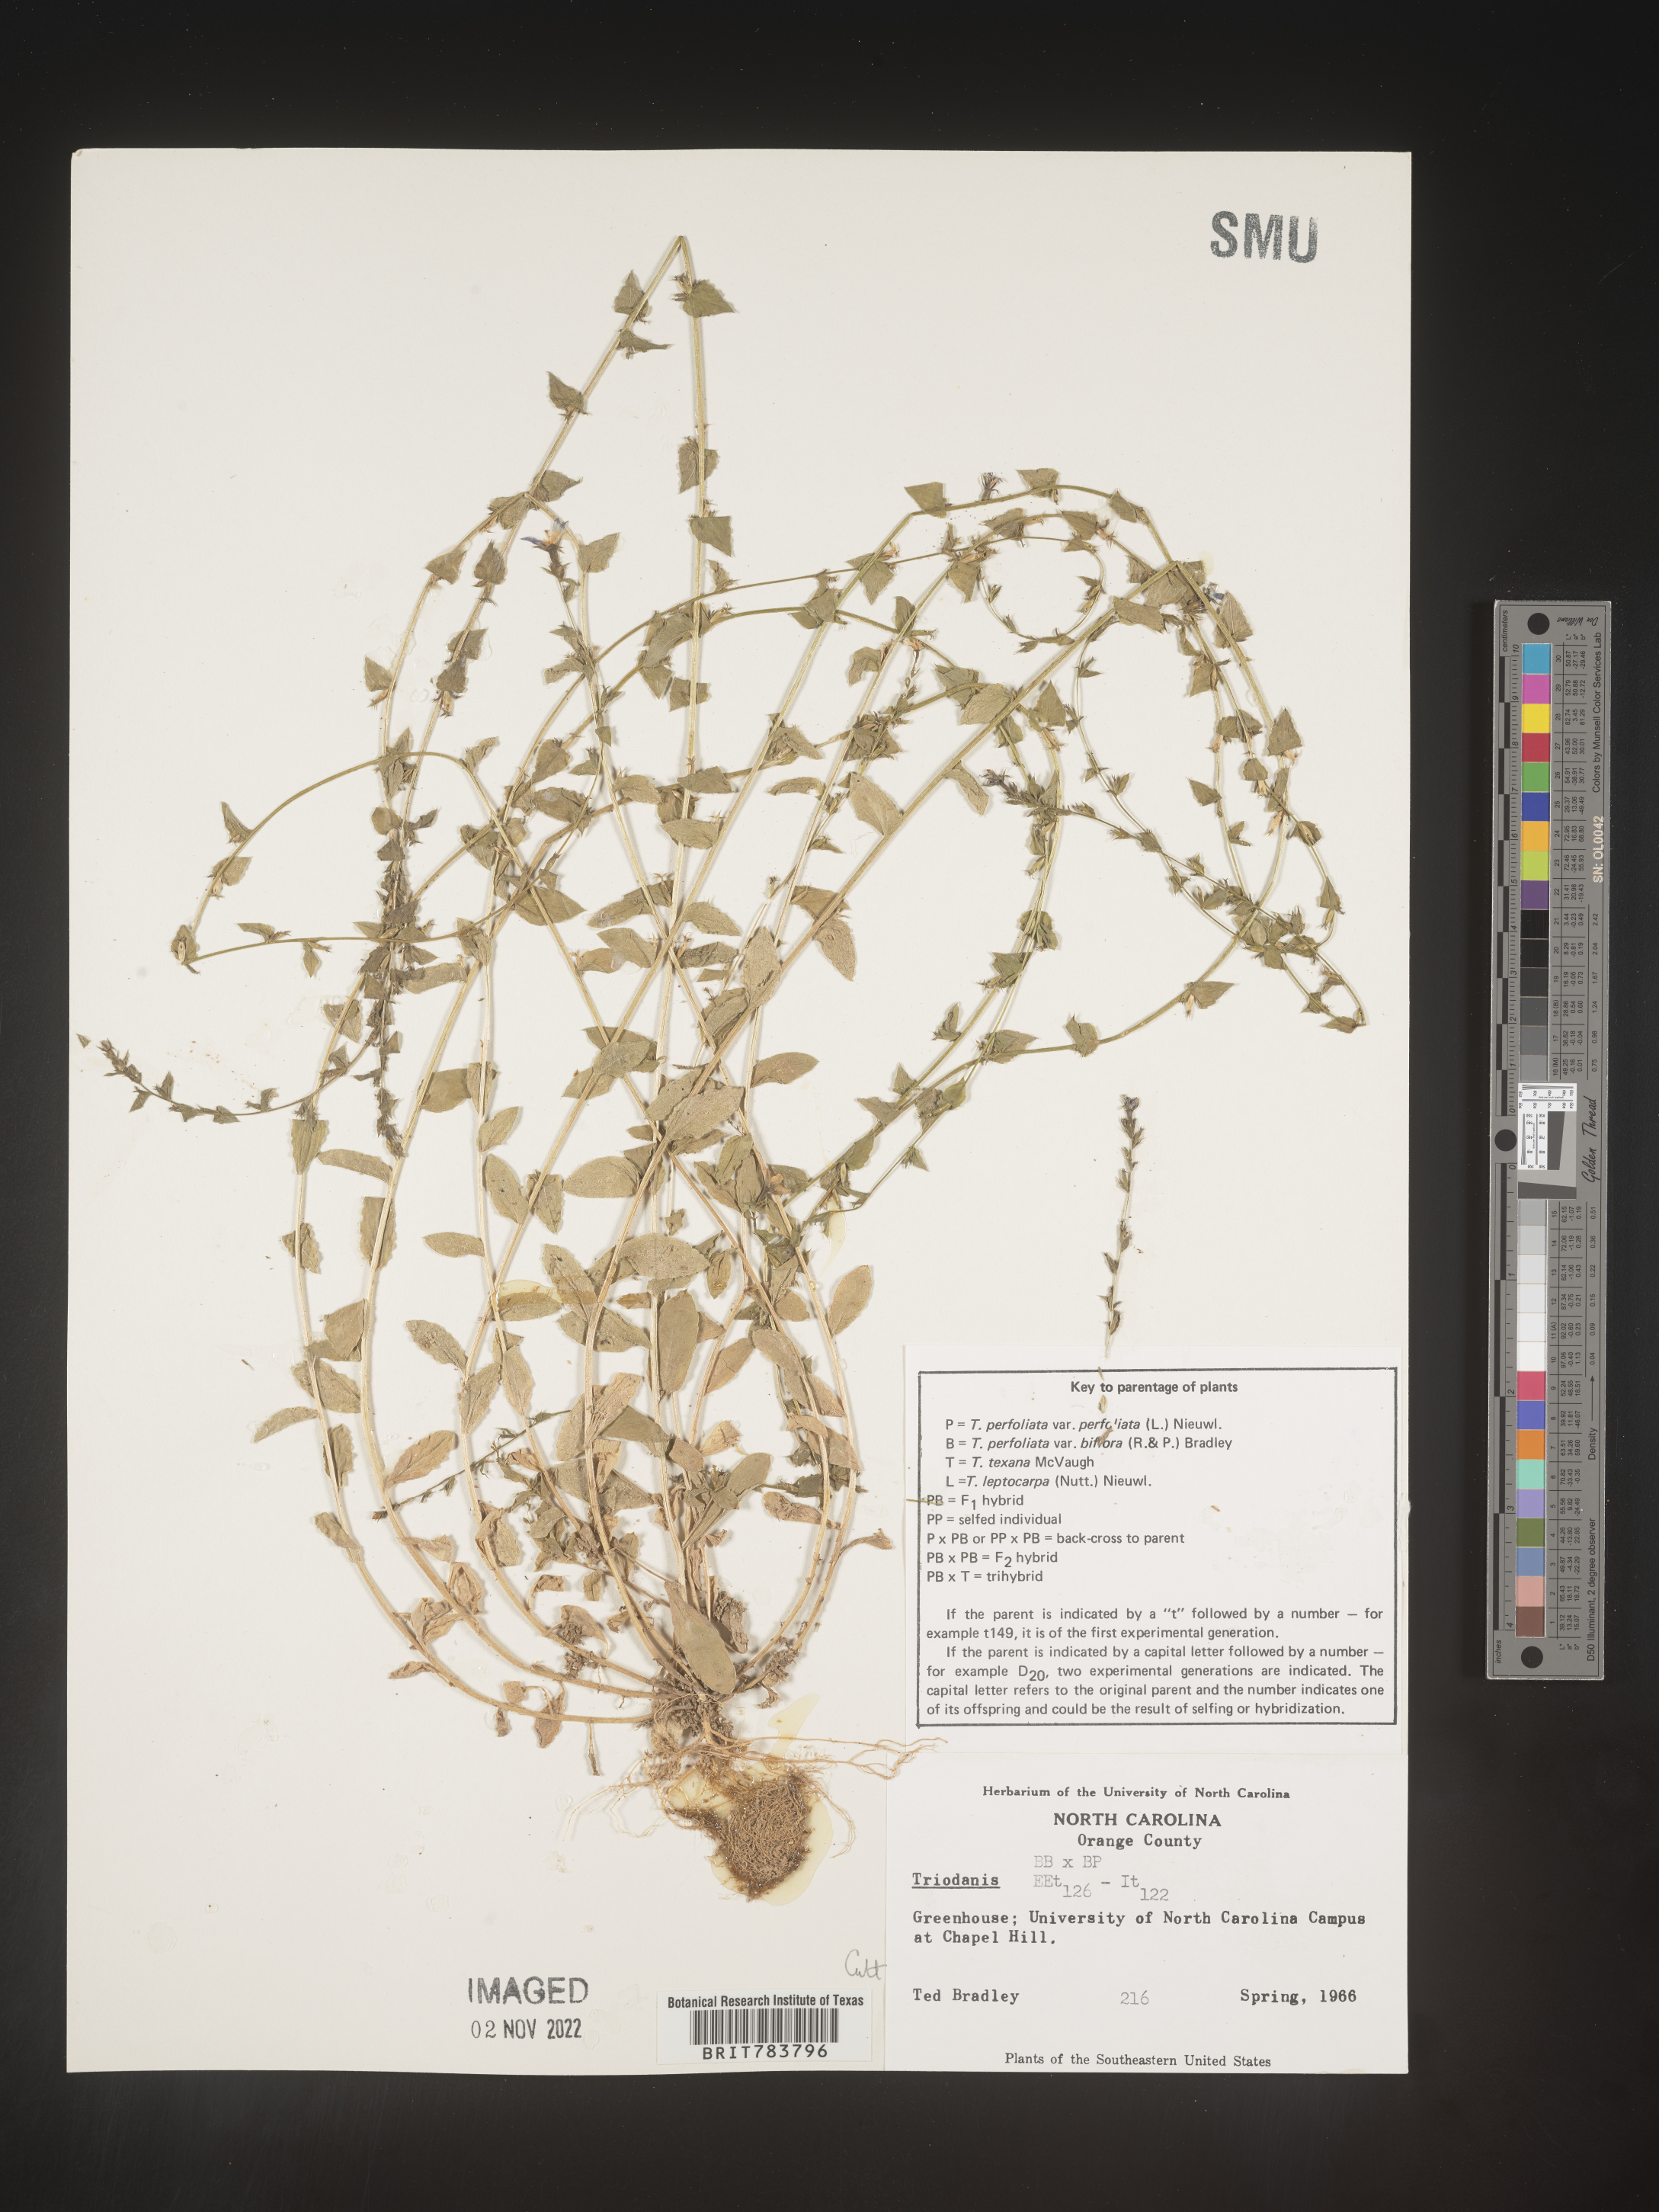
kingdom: Plantae
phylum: Tracheophyta
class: Magnoliopsida
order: Asterales
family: Campanulaceae
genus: Triodanis
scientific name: Triodanis
